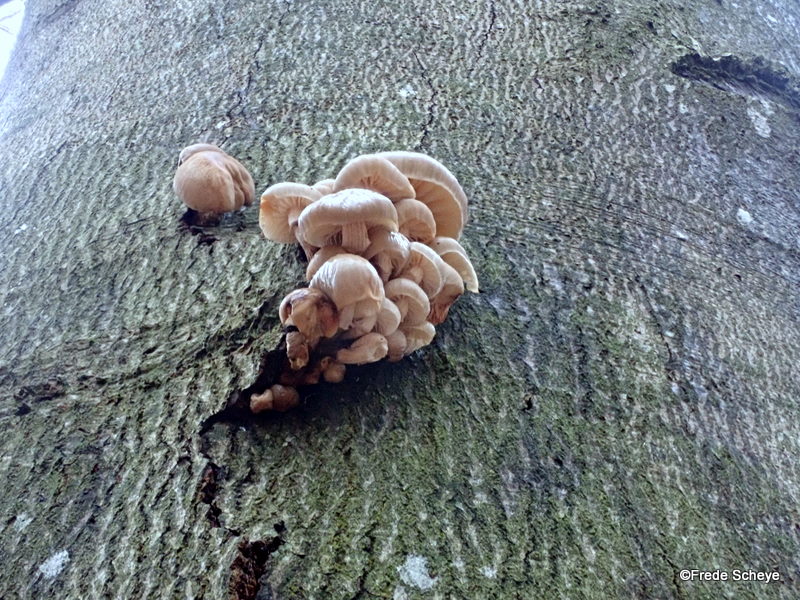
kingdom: Fungi
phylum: Basidiomycota
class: Agaricomycetes
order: Agaricales
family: Physalacriaceae
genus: Mucidula
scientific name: Mucidula mucida
